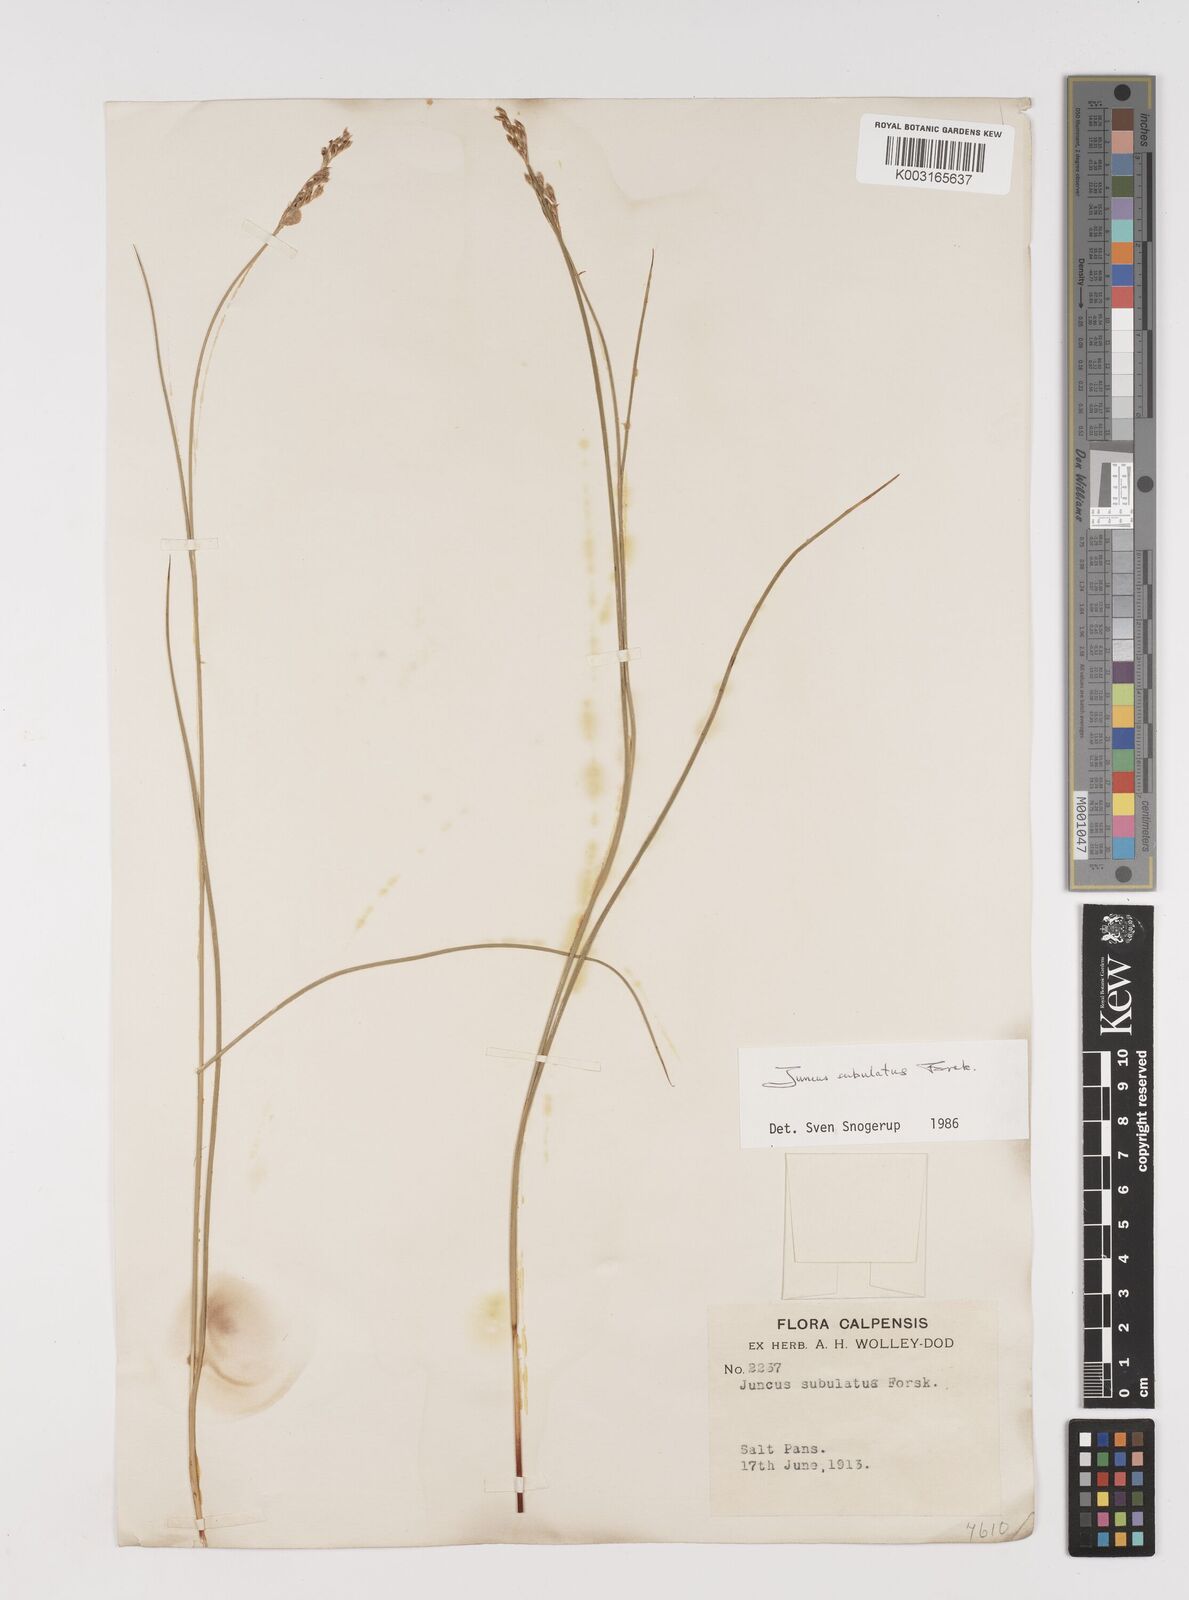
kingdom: Plantae
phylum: Tracheophyta
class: Liliopsida
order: Poales
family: Juncaceae
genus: Juncus
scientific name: Juncus subulatus
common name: Somerset rush
